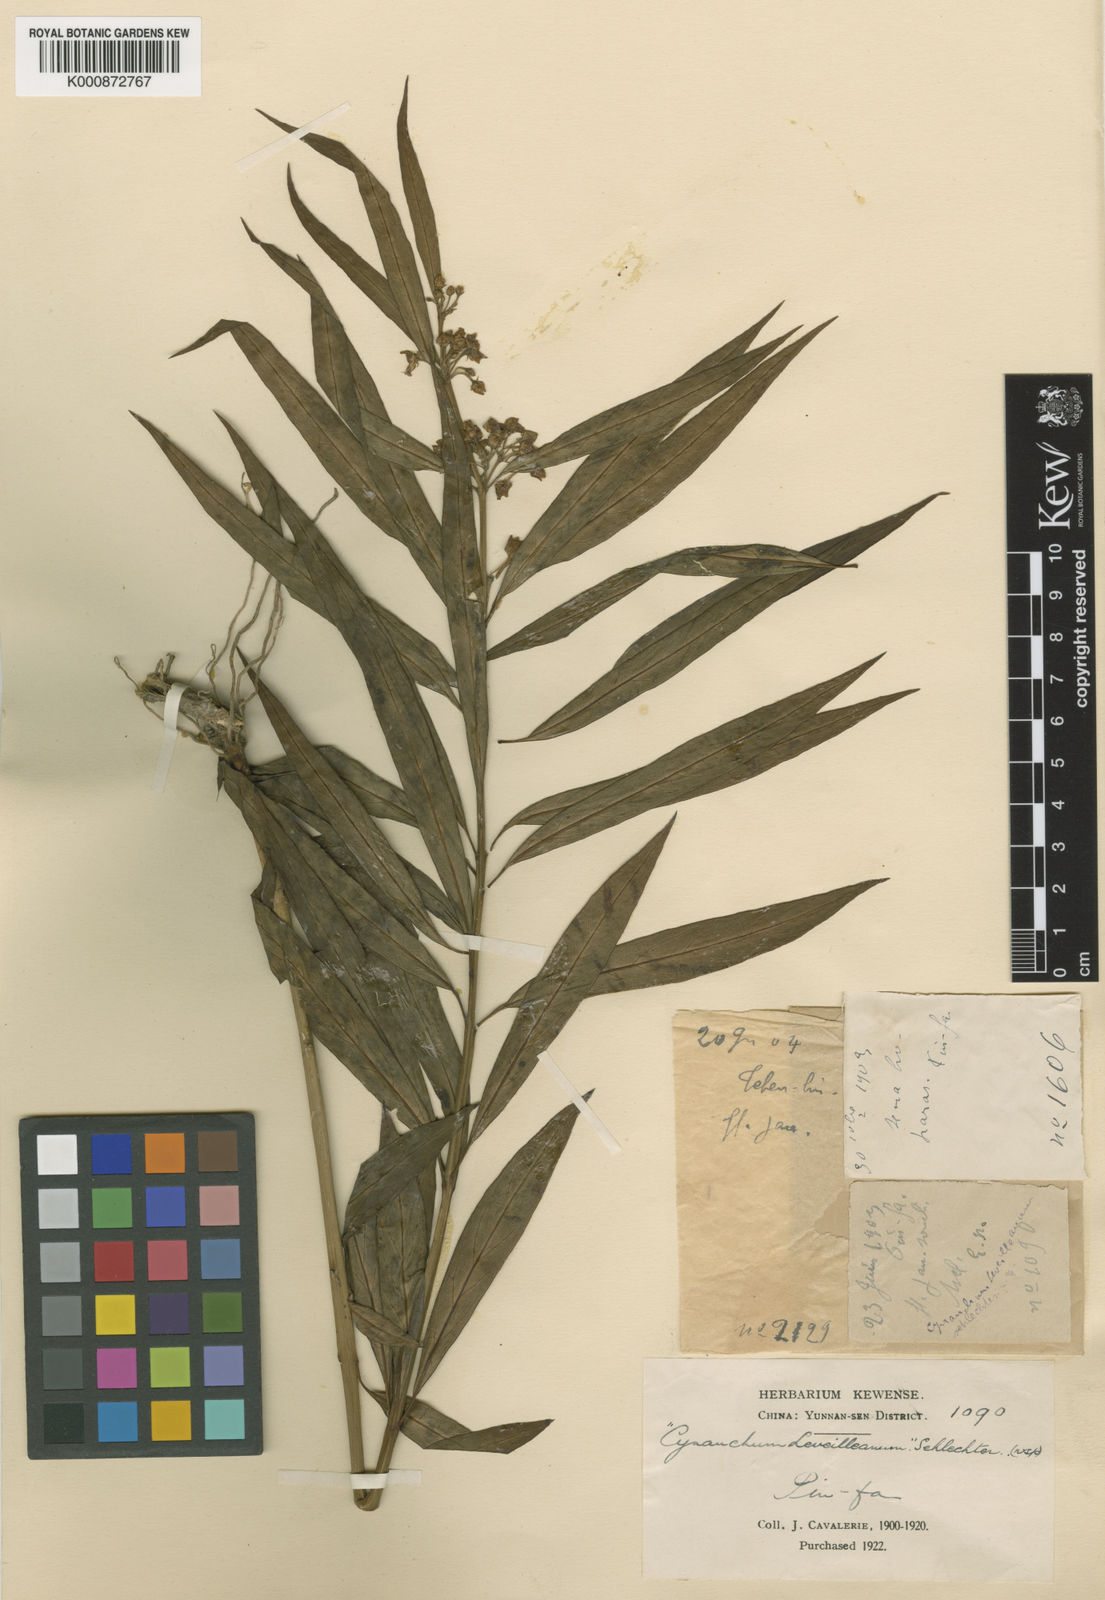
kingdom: Plantae
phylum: Tracheophyta
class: Magnoliopsida
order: Gentianales
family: Apocynaceae
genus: Vincetoxicum
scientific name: Vincetoxicum verticillatum
